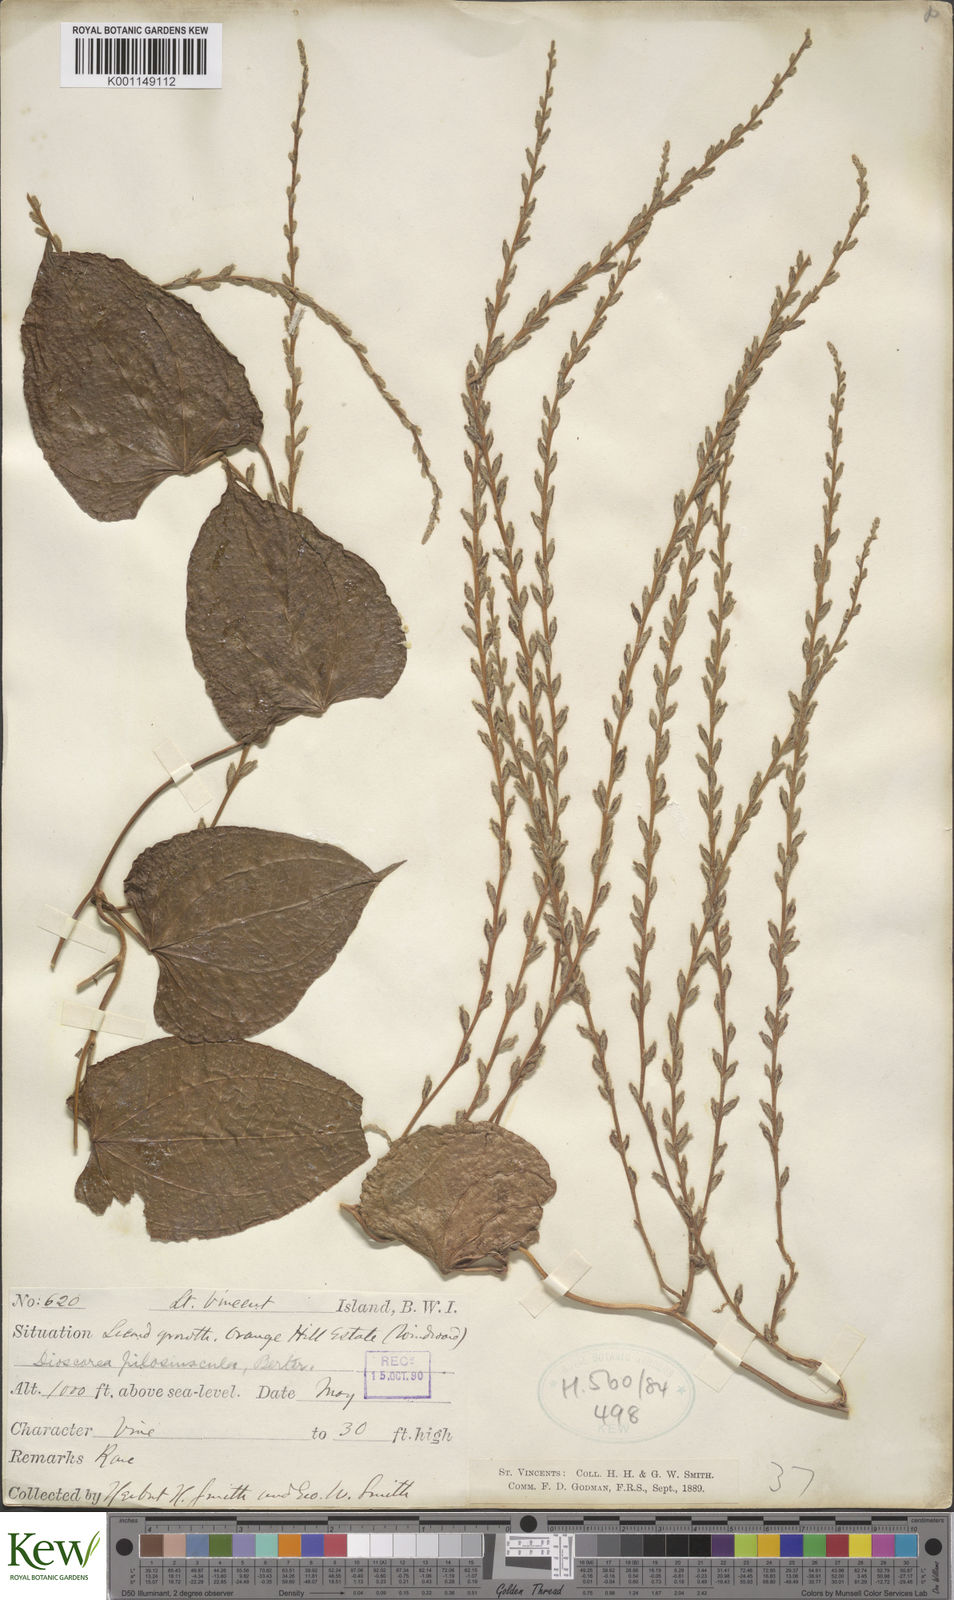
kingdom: Plantae
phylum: Tracheophyta
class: Liliopsida
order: Dioscoreales
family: Dioscoreaceae
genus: Dioscorea
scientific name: Dioscorea pilosiuscula
